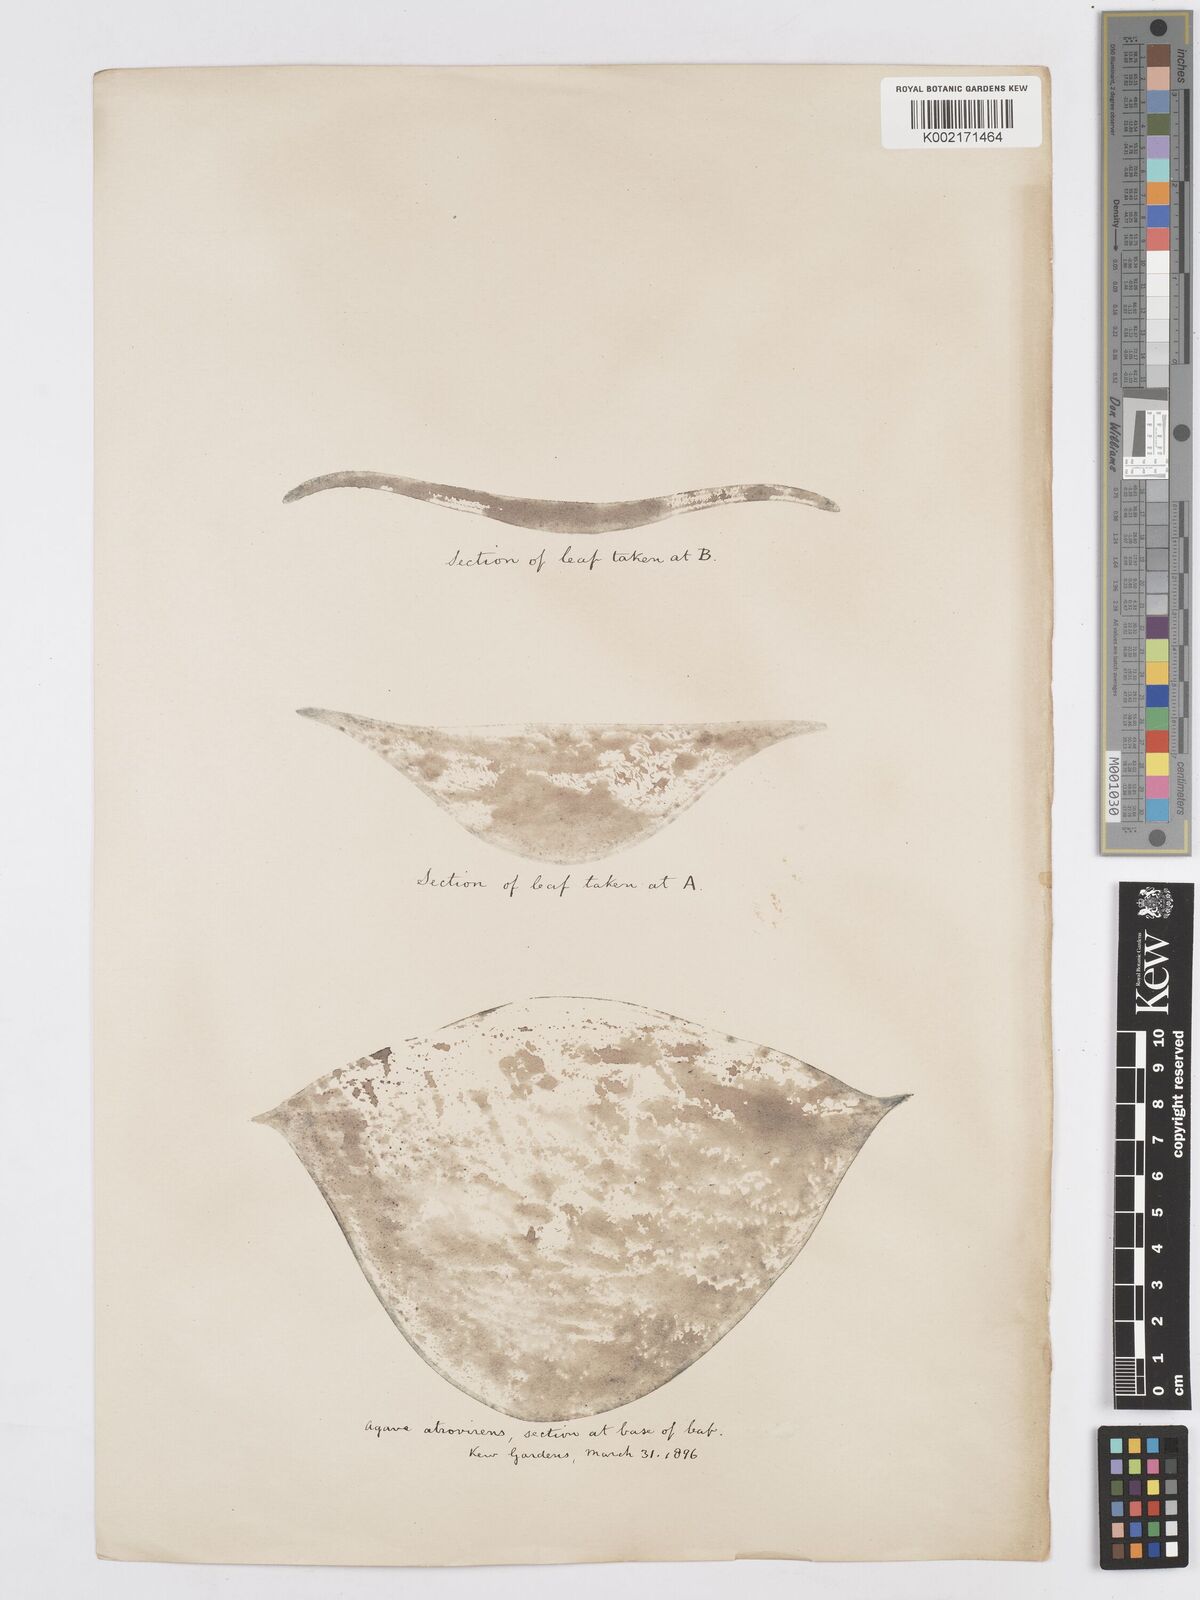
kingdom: Plantae
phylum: Tracheophyta
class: Liliopsida
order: Asparagales
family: Asparagaceae
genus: Agave
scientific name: Agave atrovirens
